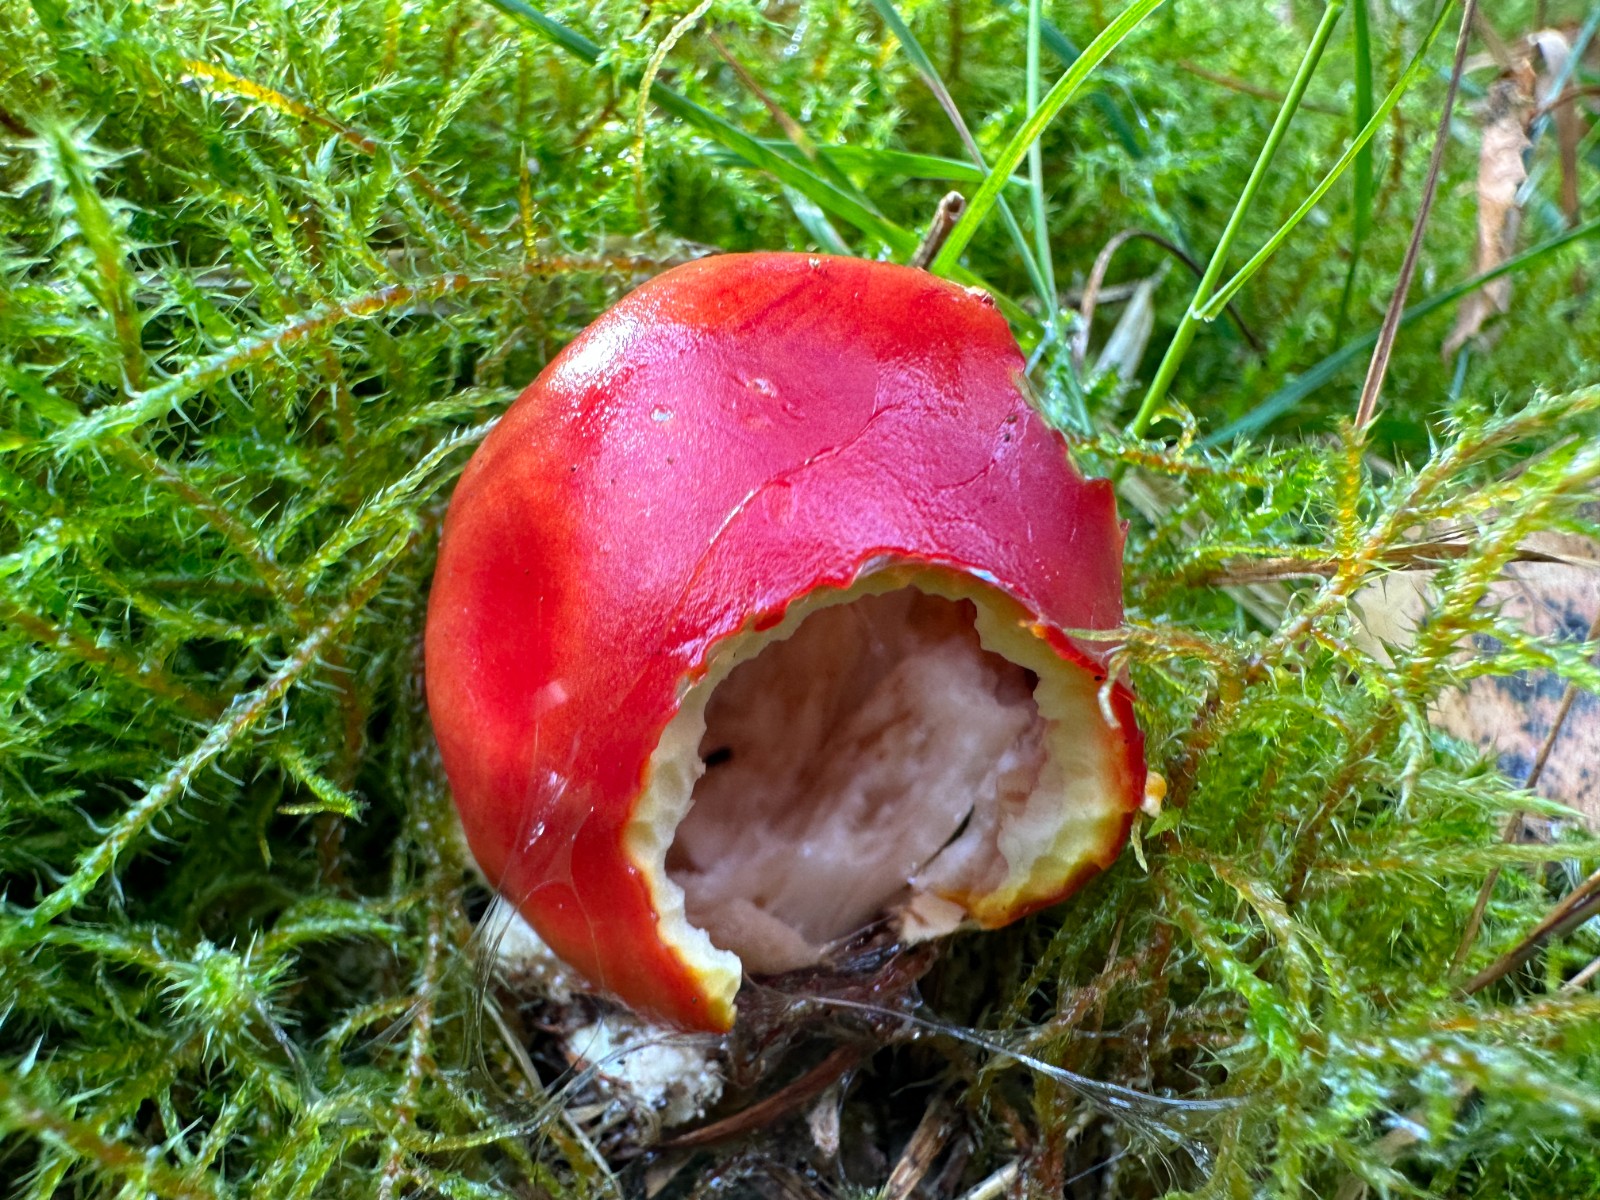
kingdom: Fungi
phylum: Basidiomycota
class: Agaricomycetes
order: Agaricales
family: Amanitaceae
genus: Amanita
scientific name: Amanita muscaria
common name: rød fluesvamp
